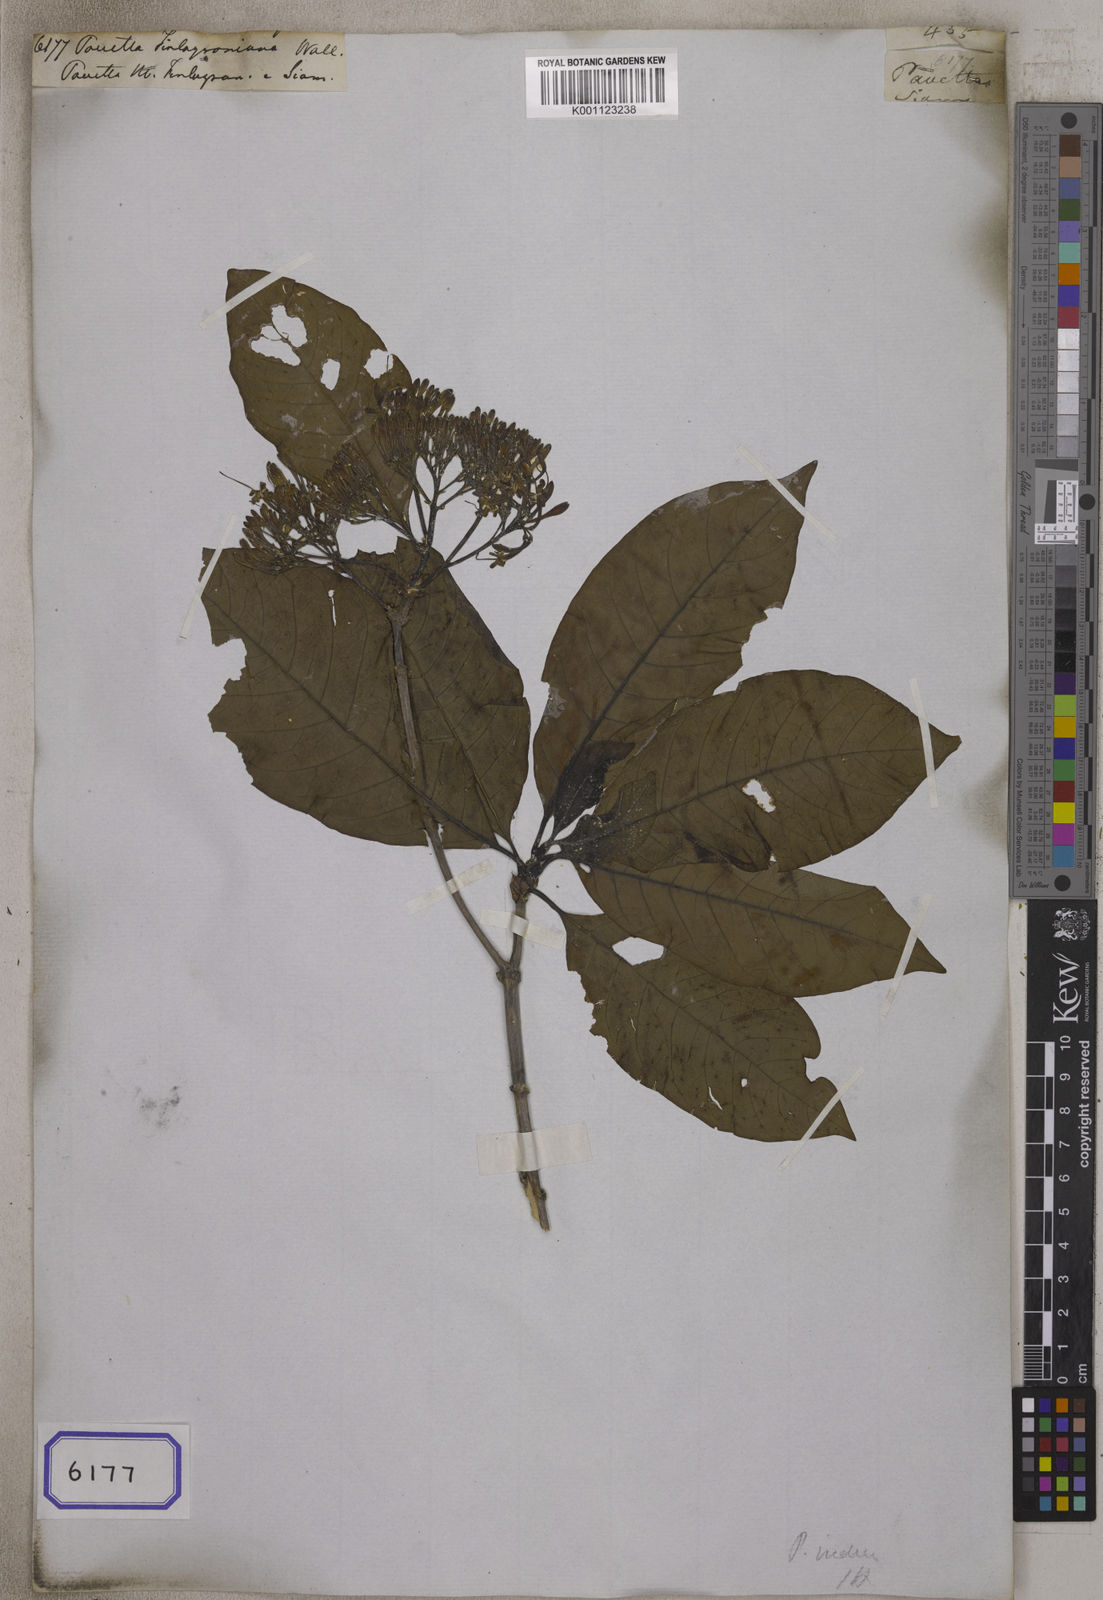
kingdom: Plantae
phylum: Tracheophyta
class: Magnoliopsida
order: Gentianales
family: Rubiaceae
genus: Pavetta
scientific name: Pavetta
